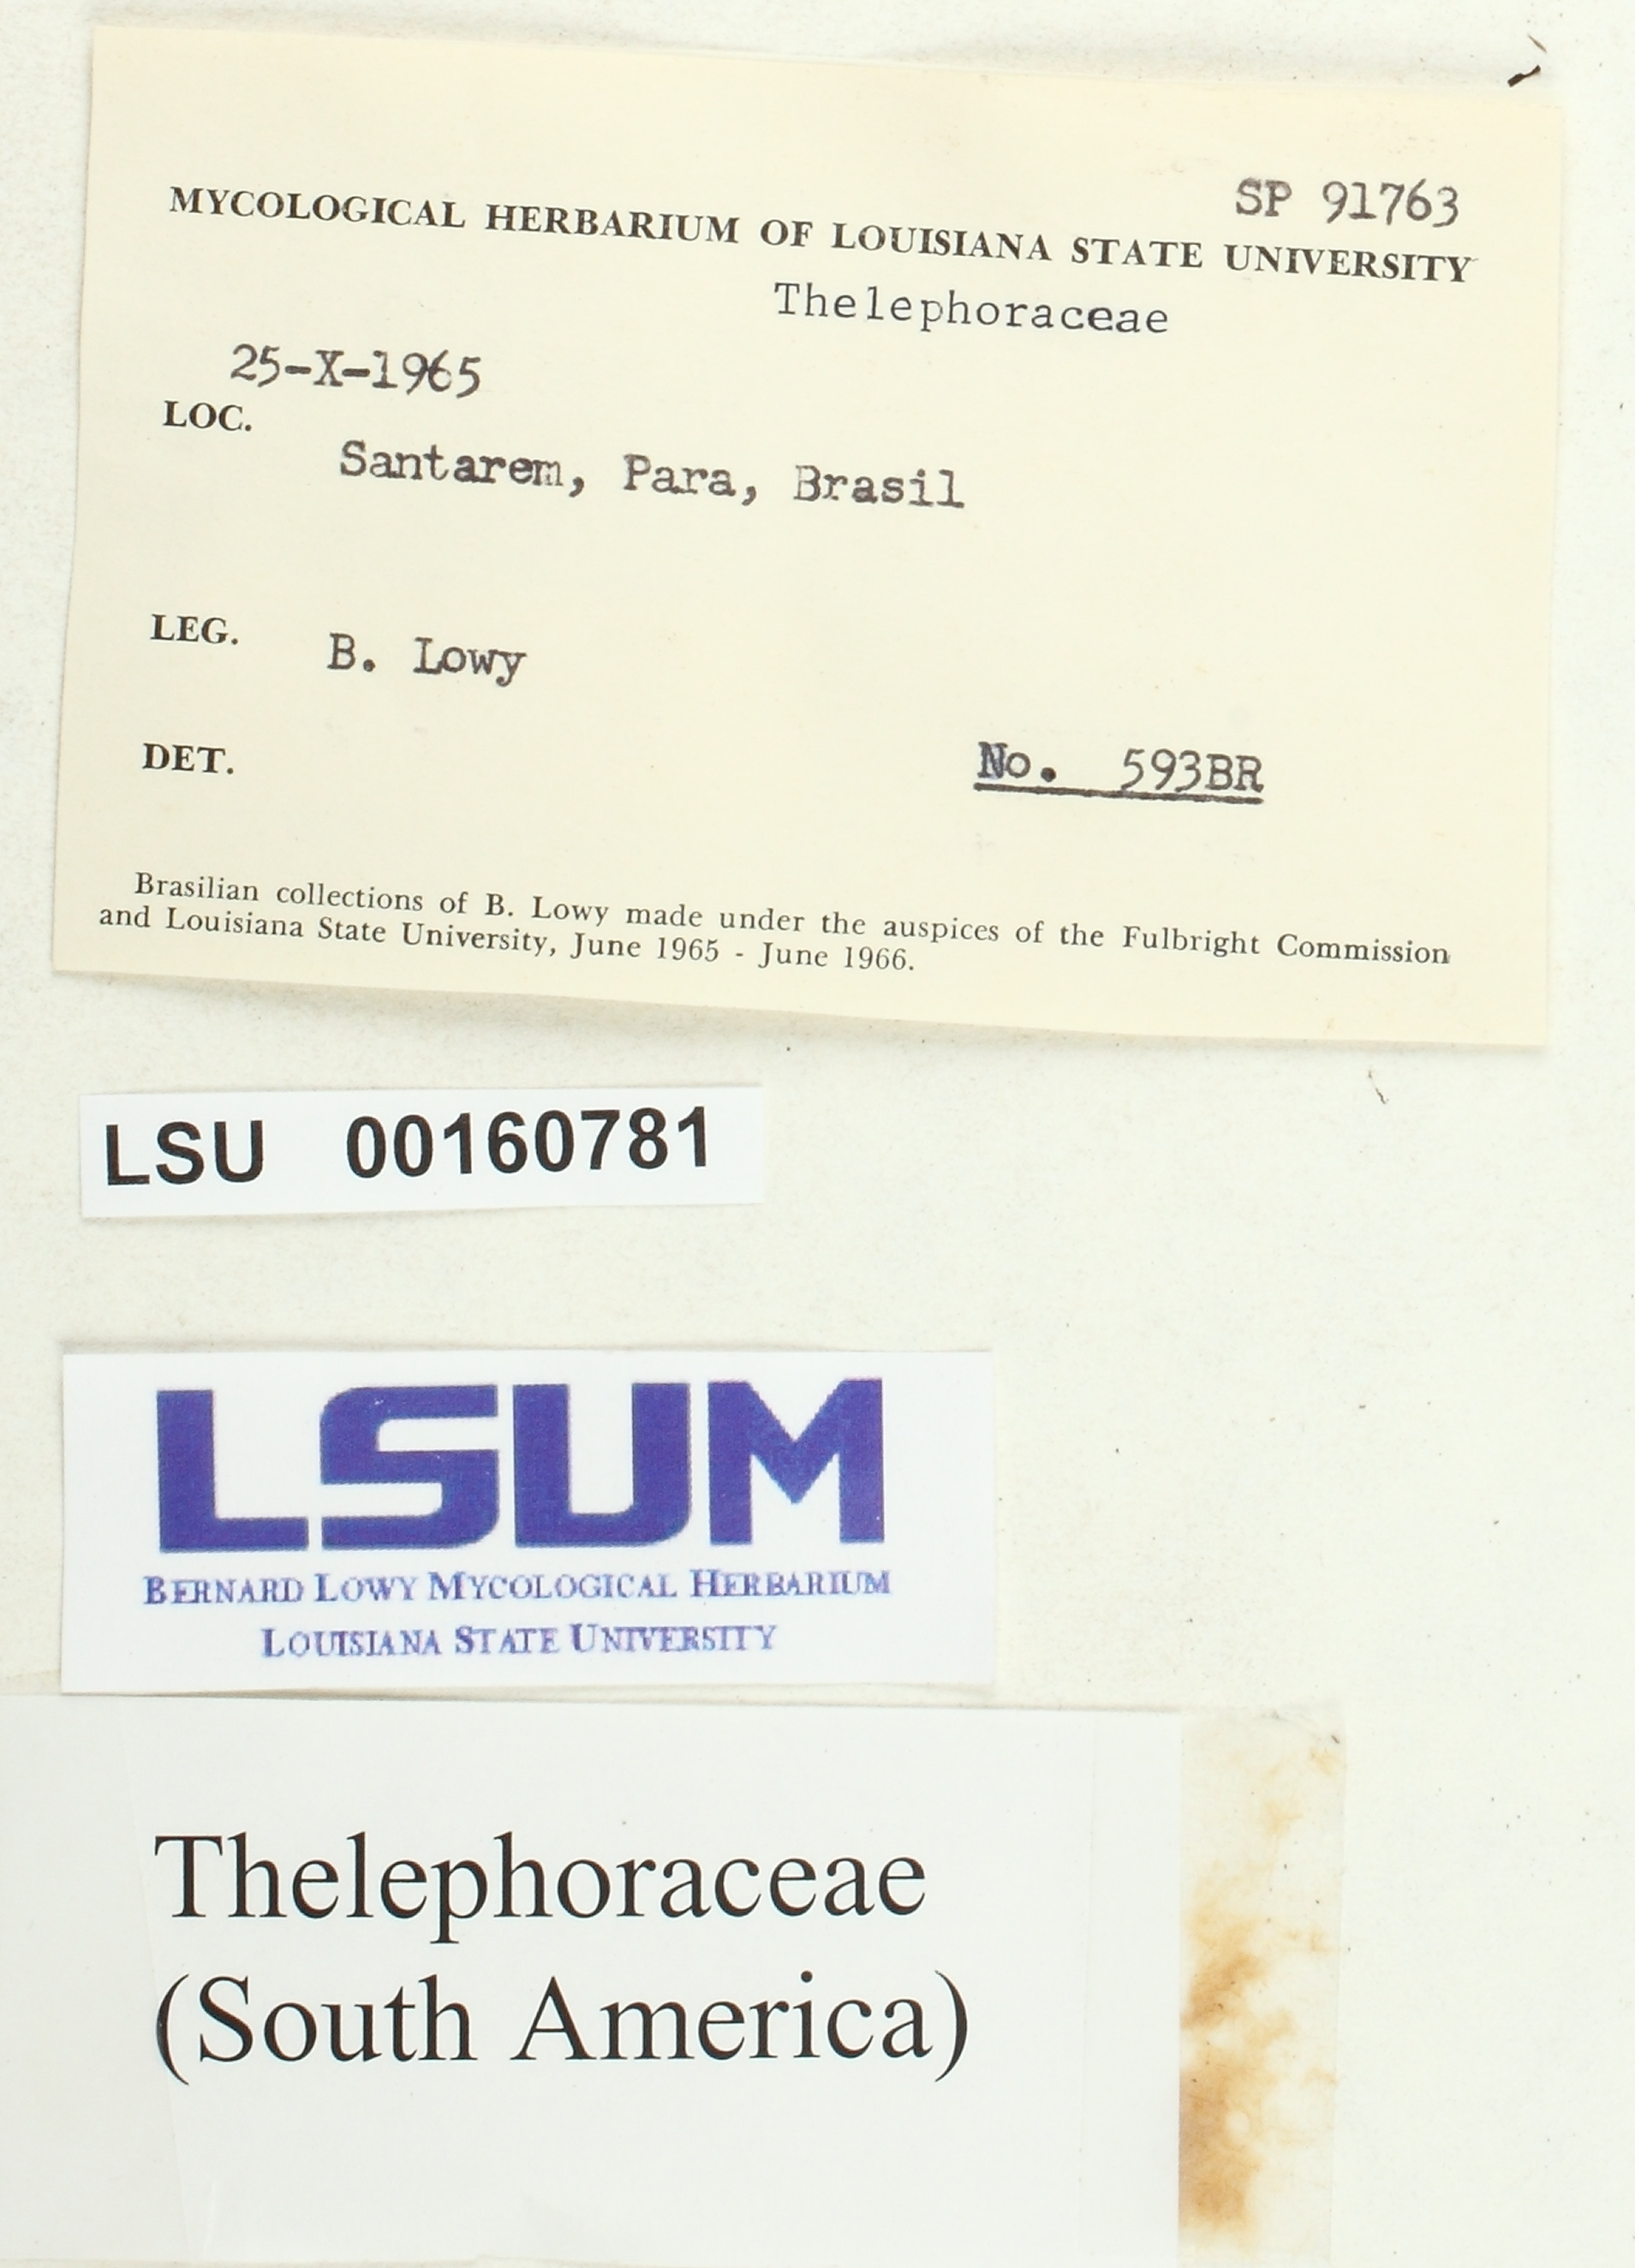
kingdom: Fungi
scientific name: Fungi
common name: Fungi
